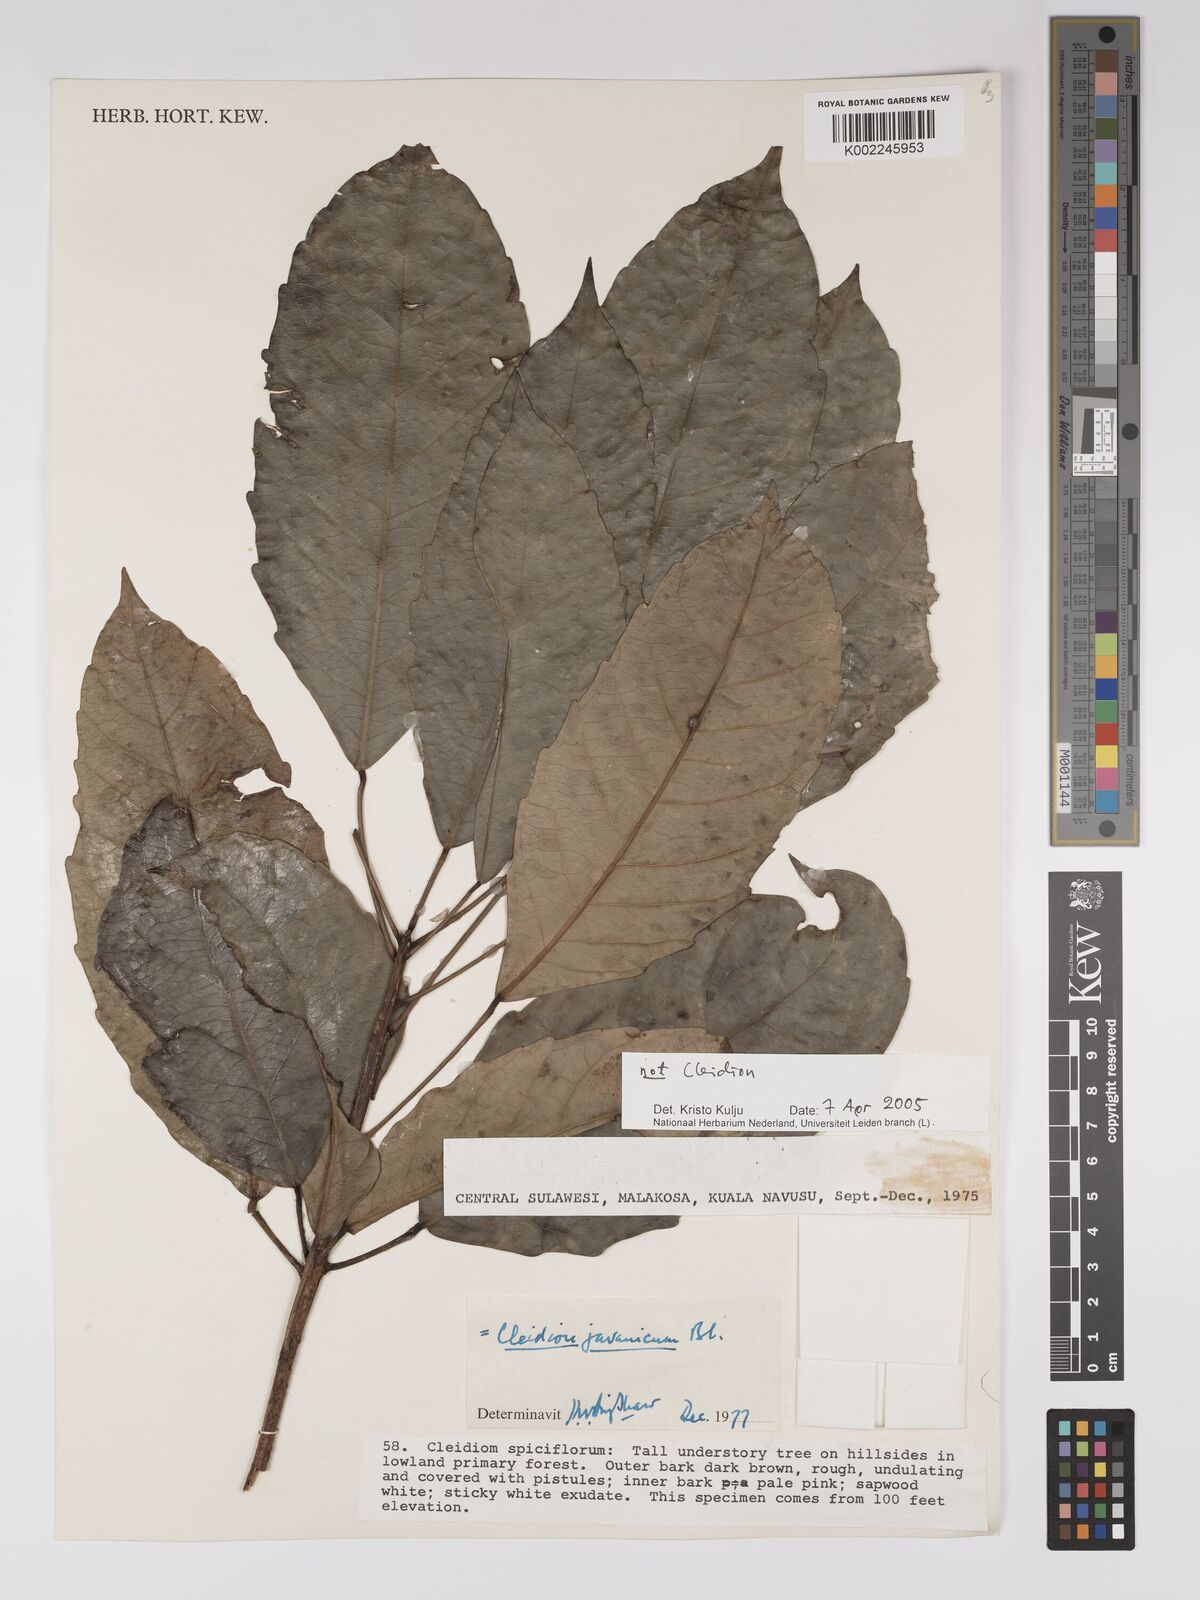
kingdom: Plantae
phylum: Tracheophyta
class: Magnoliopsida
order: Malpighiales
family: Euphorbiaceae
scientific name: Euphorbiaceae
